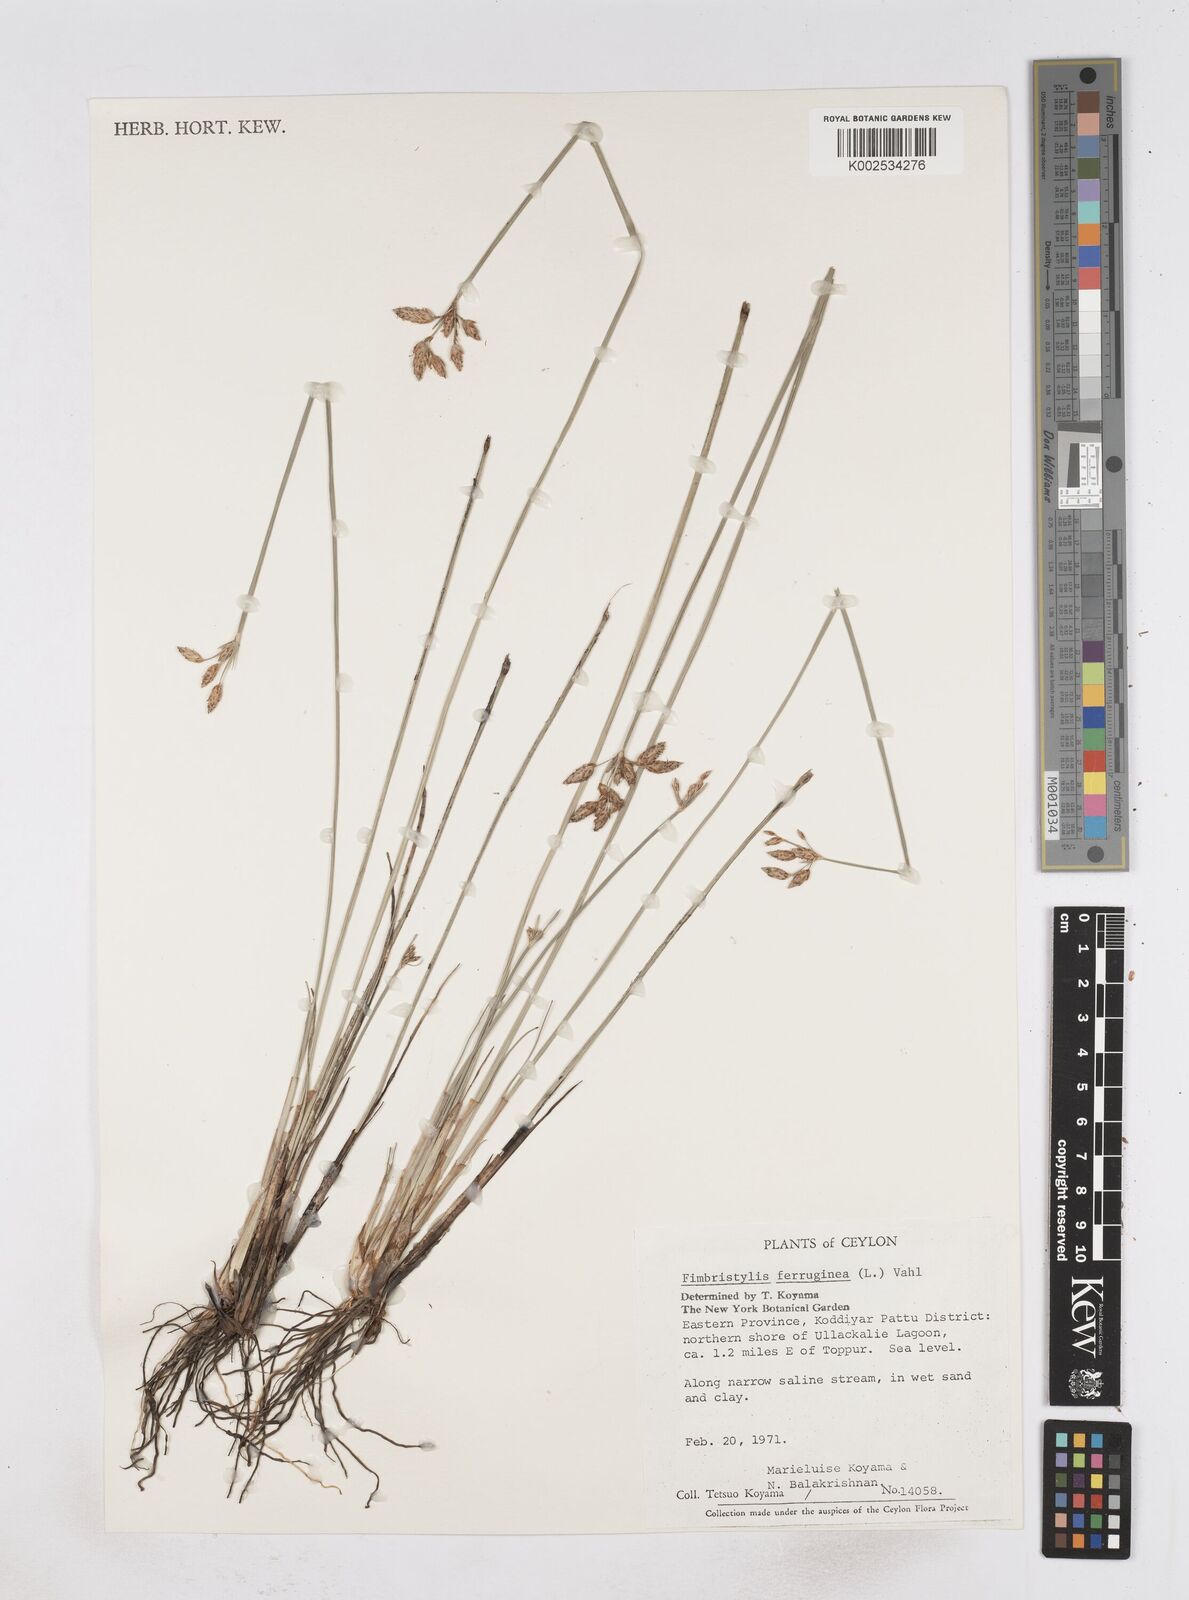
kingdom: Plantae
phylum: Tracheophyta
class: Liliopsida
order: Poales
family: Cyperaceae
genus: Fimbristylis
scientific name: Fimbristylis ferruginea
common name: West indian fimbry
